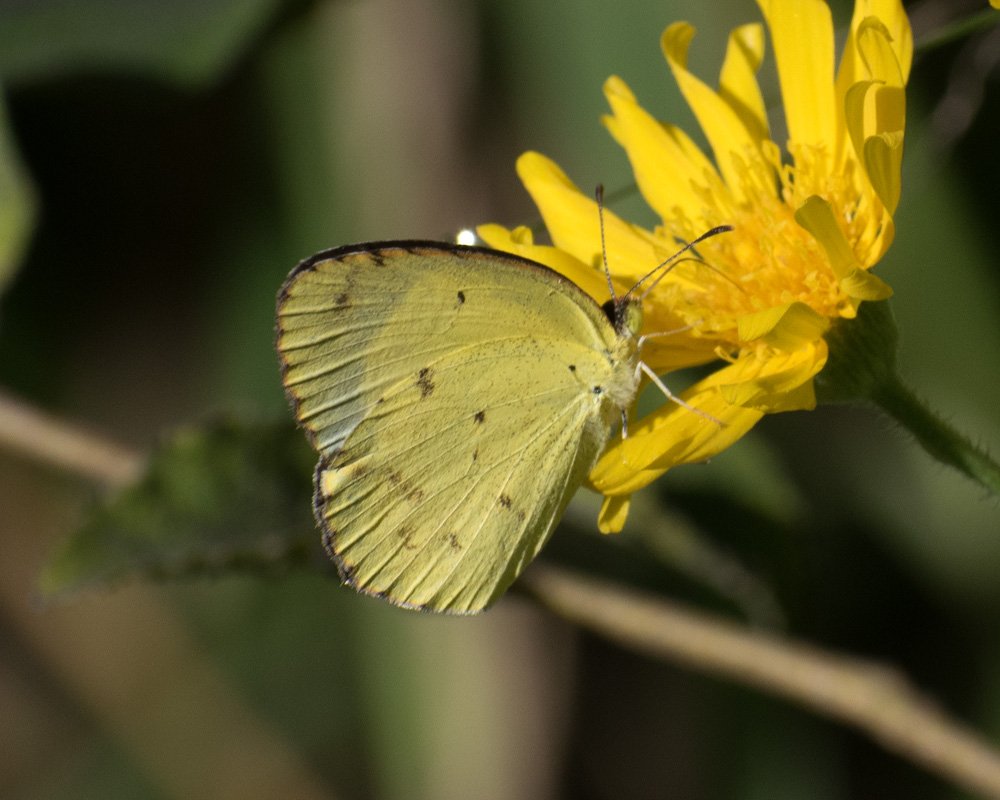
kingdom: Animalia
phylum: Arthropoda
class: Insecta
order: Lepidoptera
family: Pieridae
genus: Pyrisitia
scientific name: Pyrisitia lisa
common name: Little Yellow
